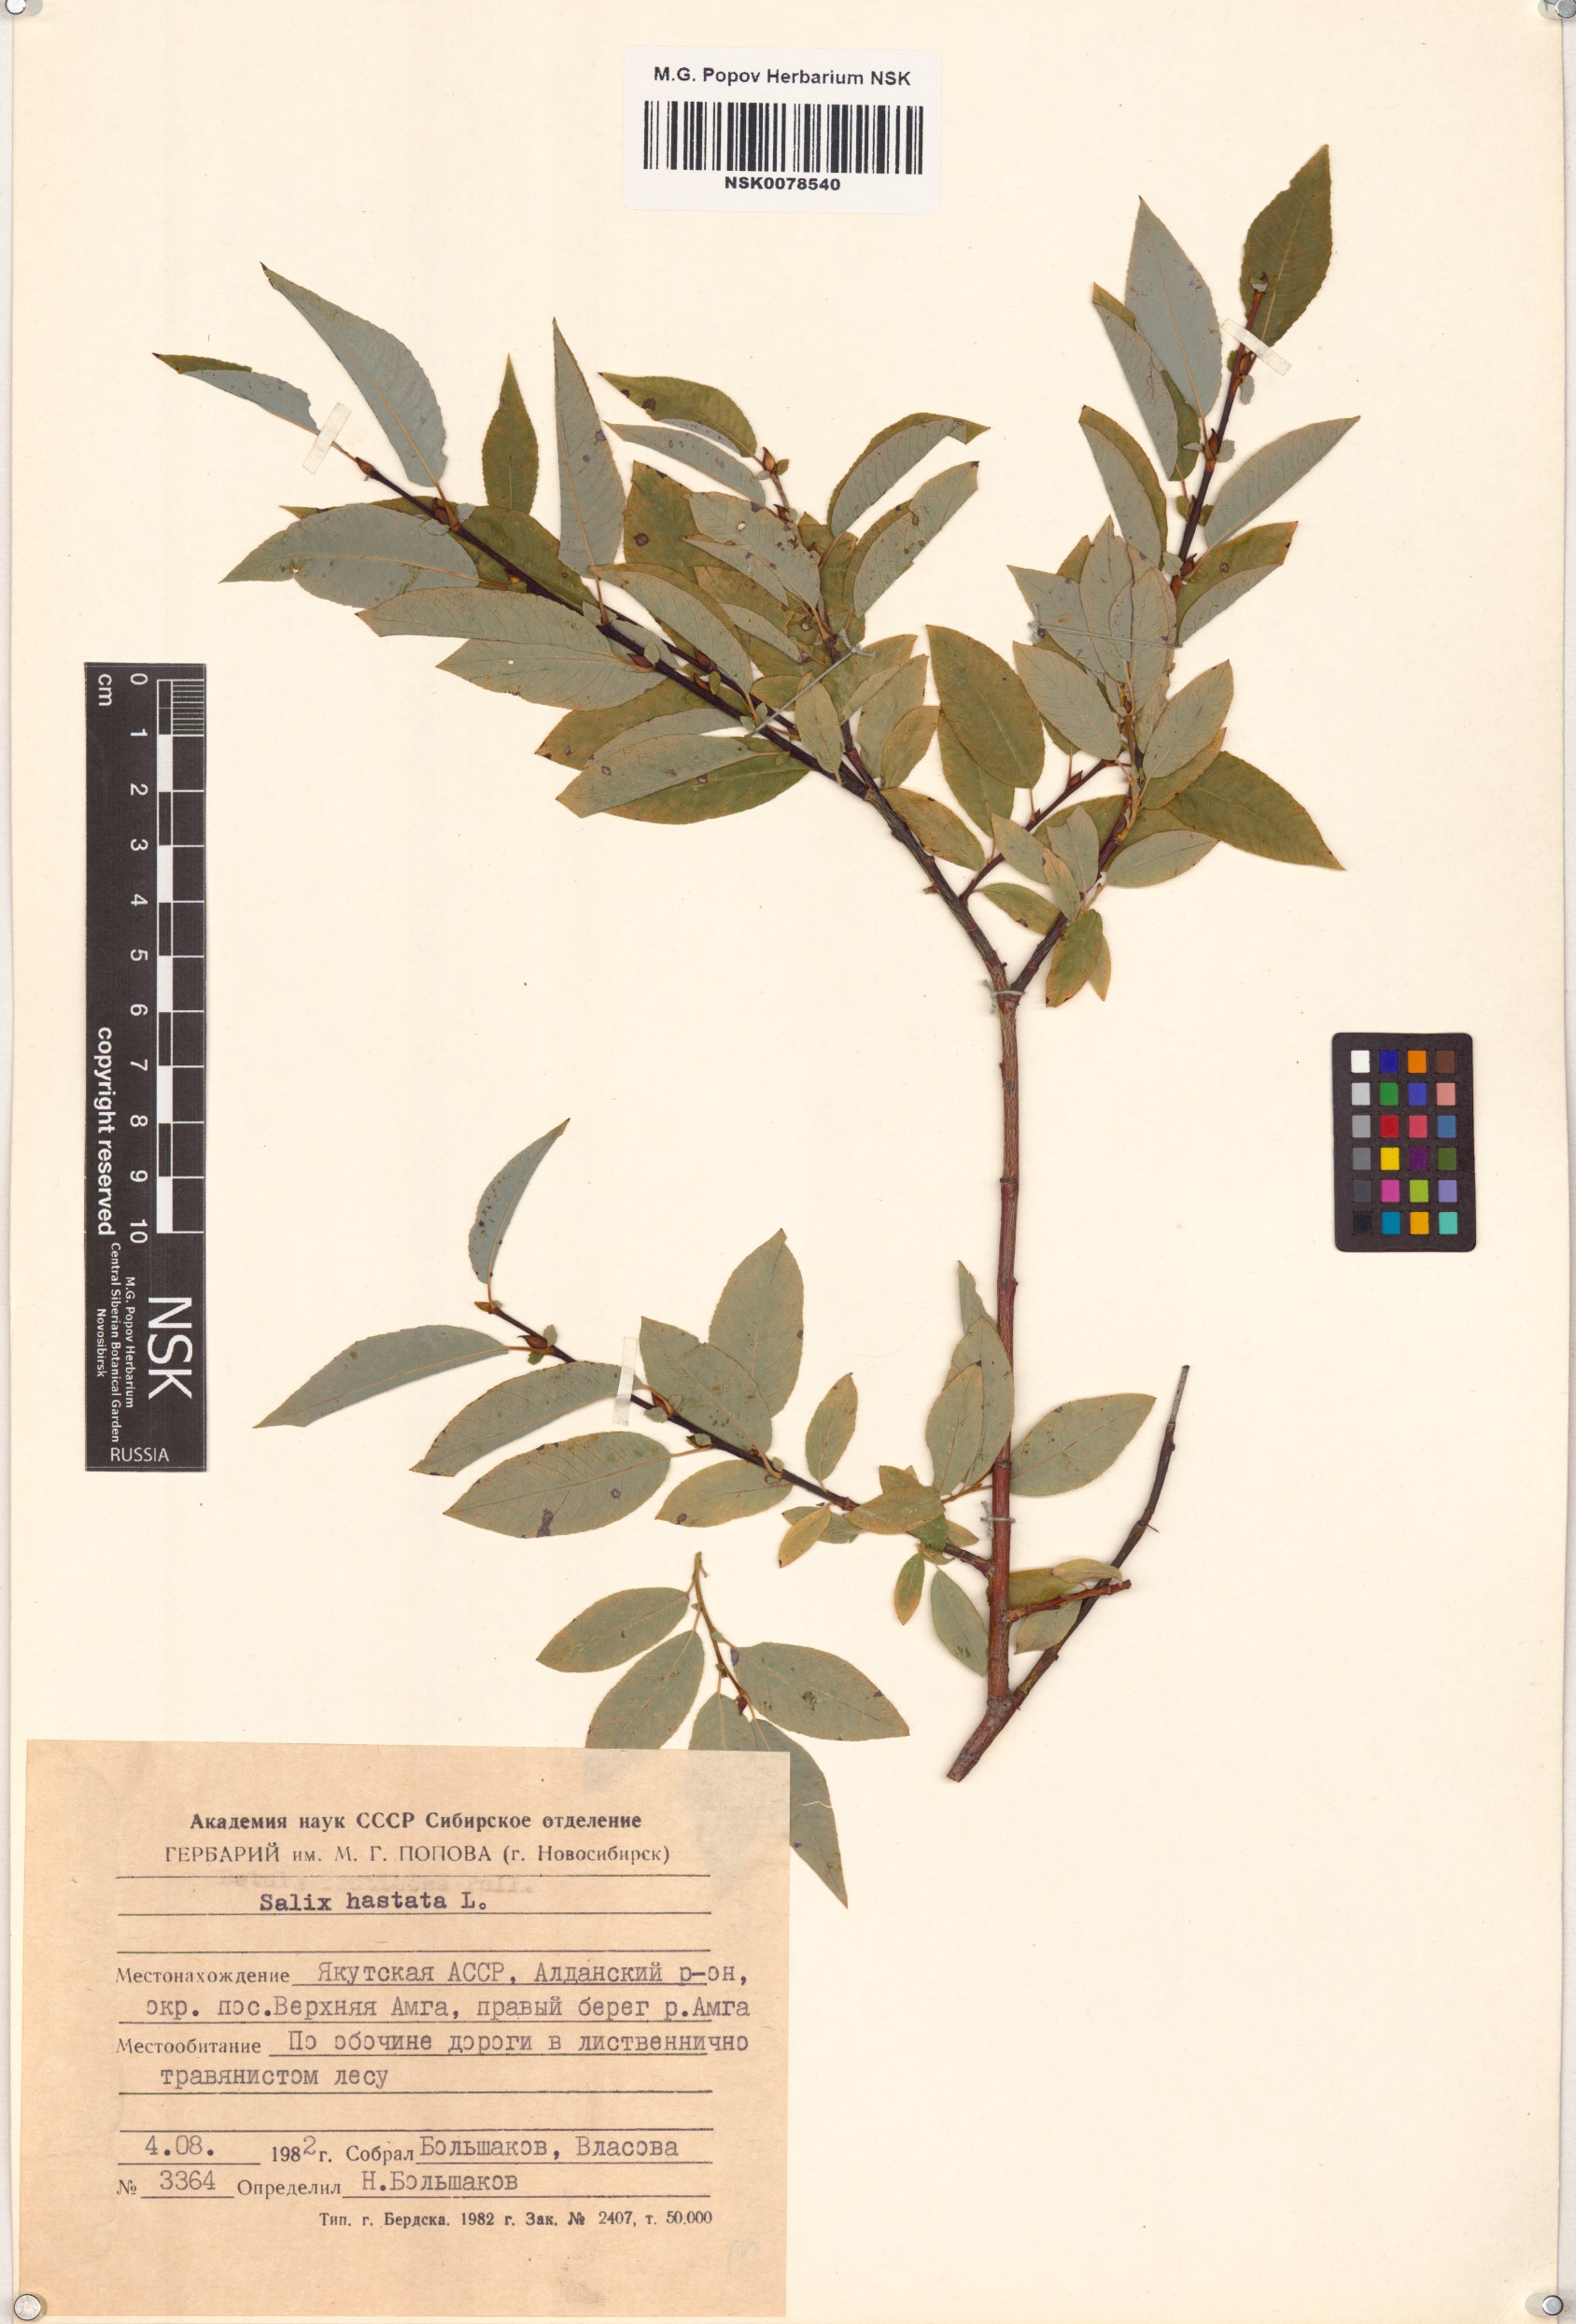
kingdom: Plantae
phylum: Tracheophyta
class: Magnoliopsida
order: Malpighiales
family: Salicaceae
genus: Salix
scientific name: Salix hastata
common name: Halberd willow
